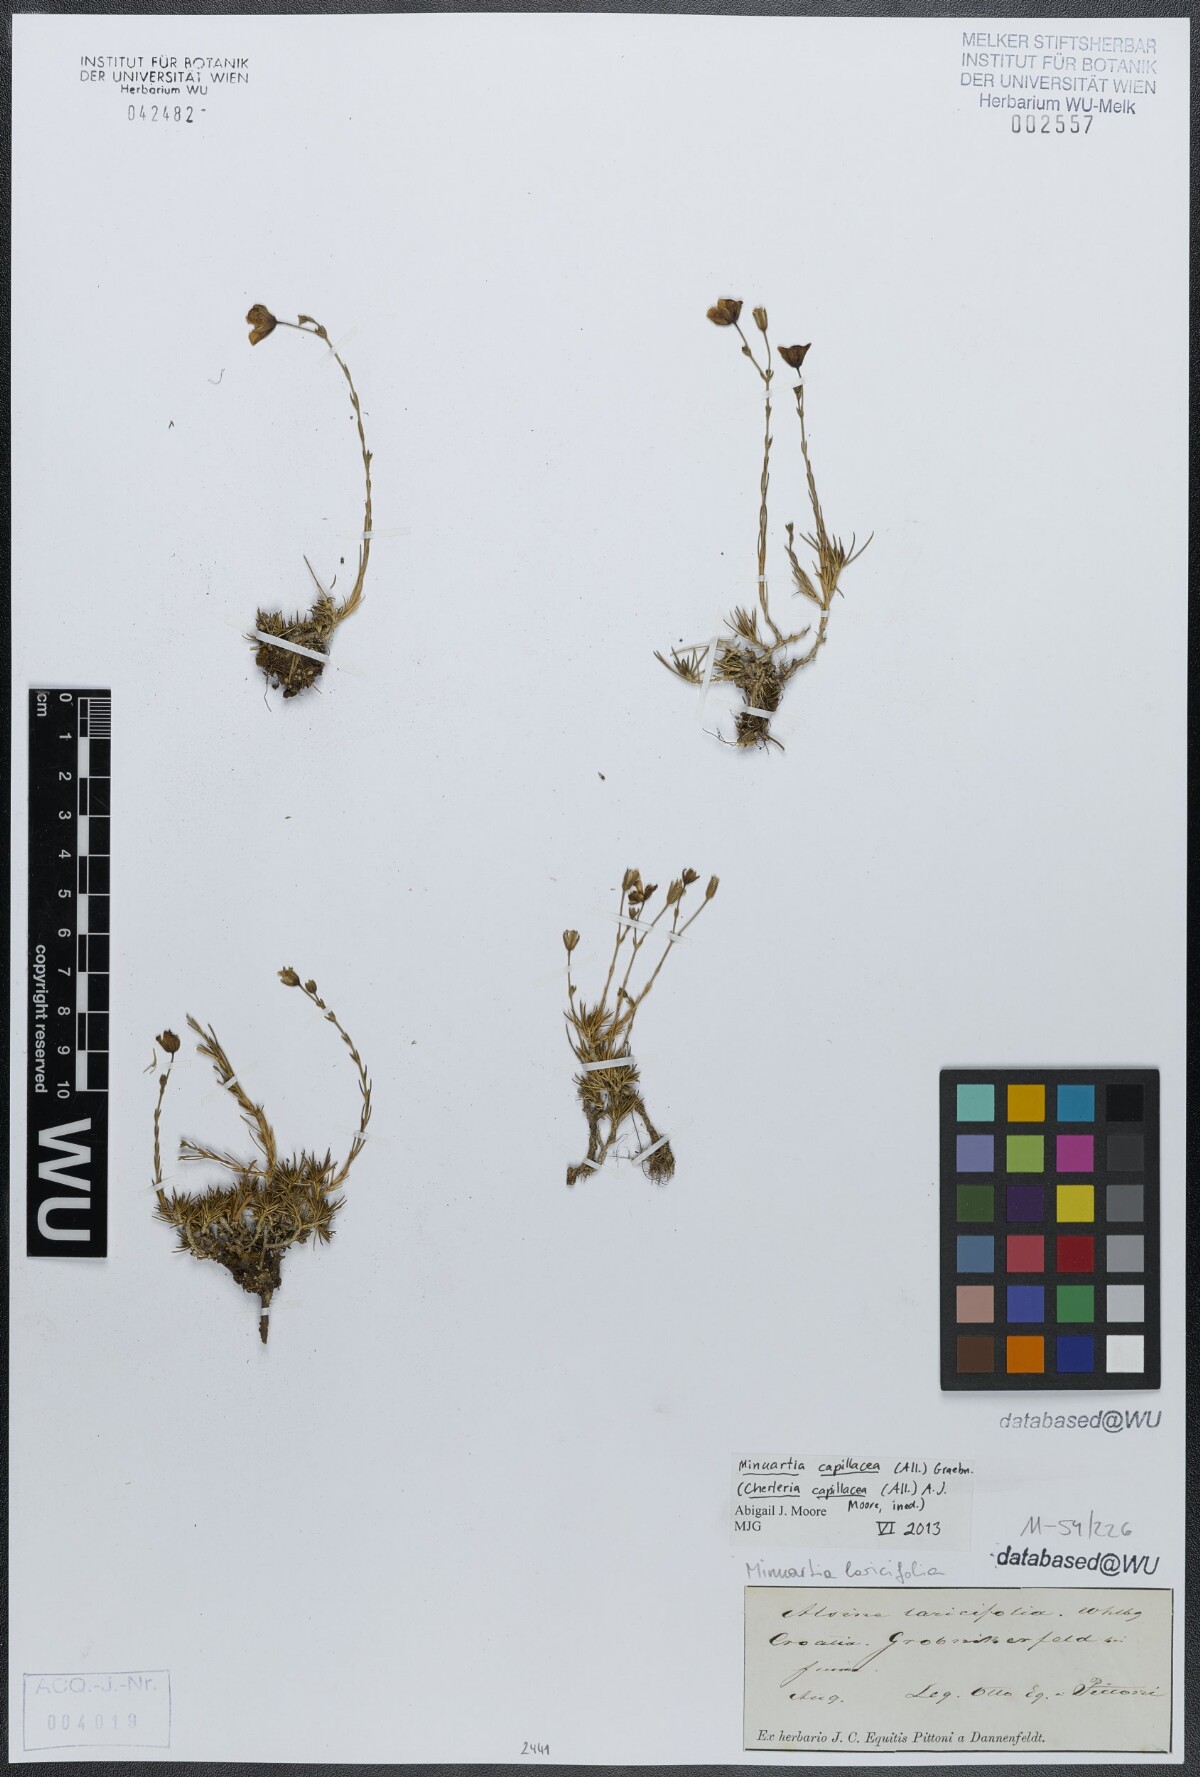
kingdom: Plantae
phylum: Tracheophyta
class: Magnoliopsida
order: Caryophyllales
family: Caryophyllaceae
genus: Cherleria
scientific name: Cherleria capillacea
